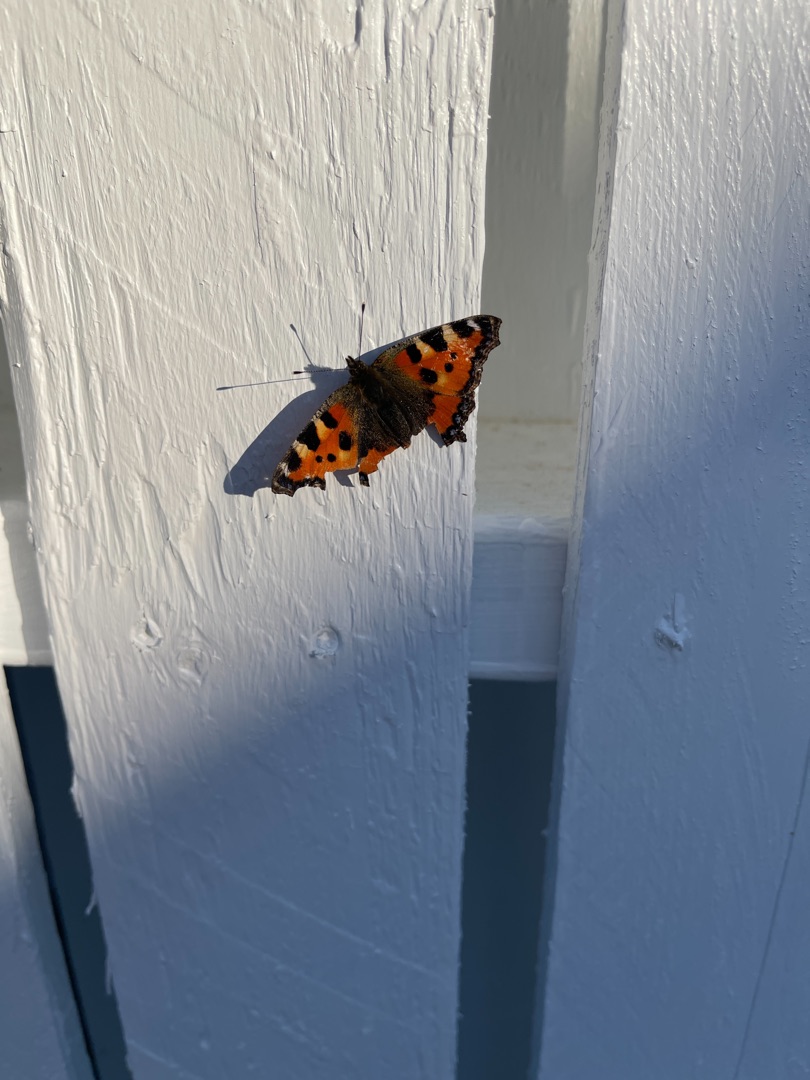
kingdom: Animalia
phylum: Arthropoda
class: Insecta
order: Lepidoptera
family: Nymphalidae
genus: Aglais
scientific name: Aglais urticae
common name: Nældens takvinge
